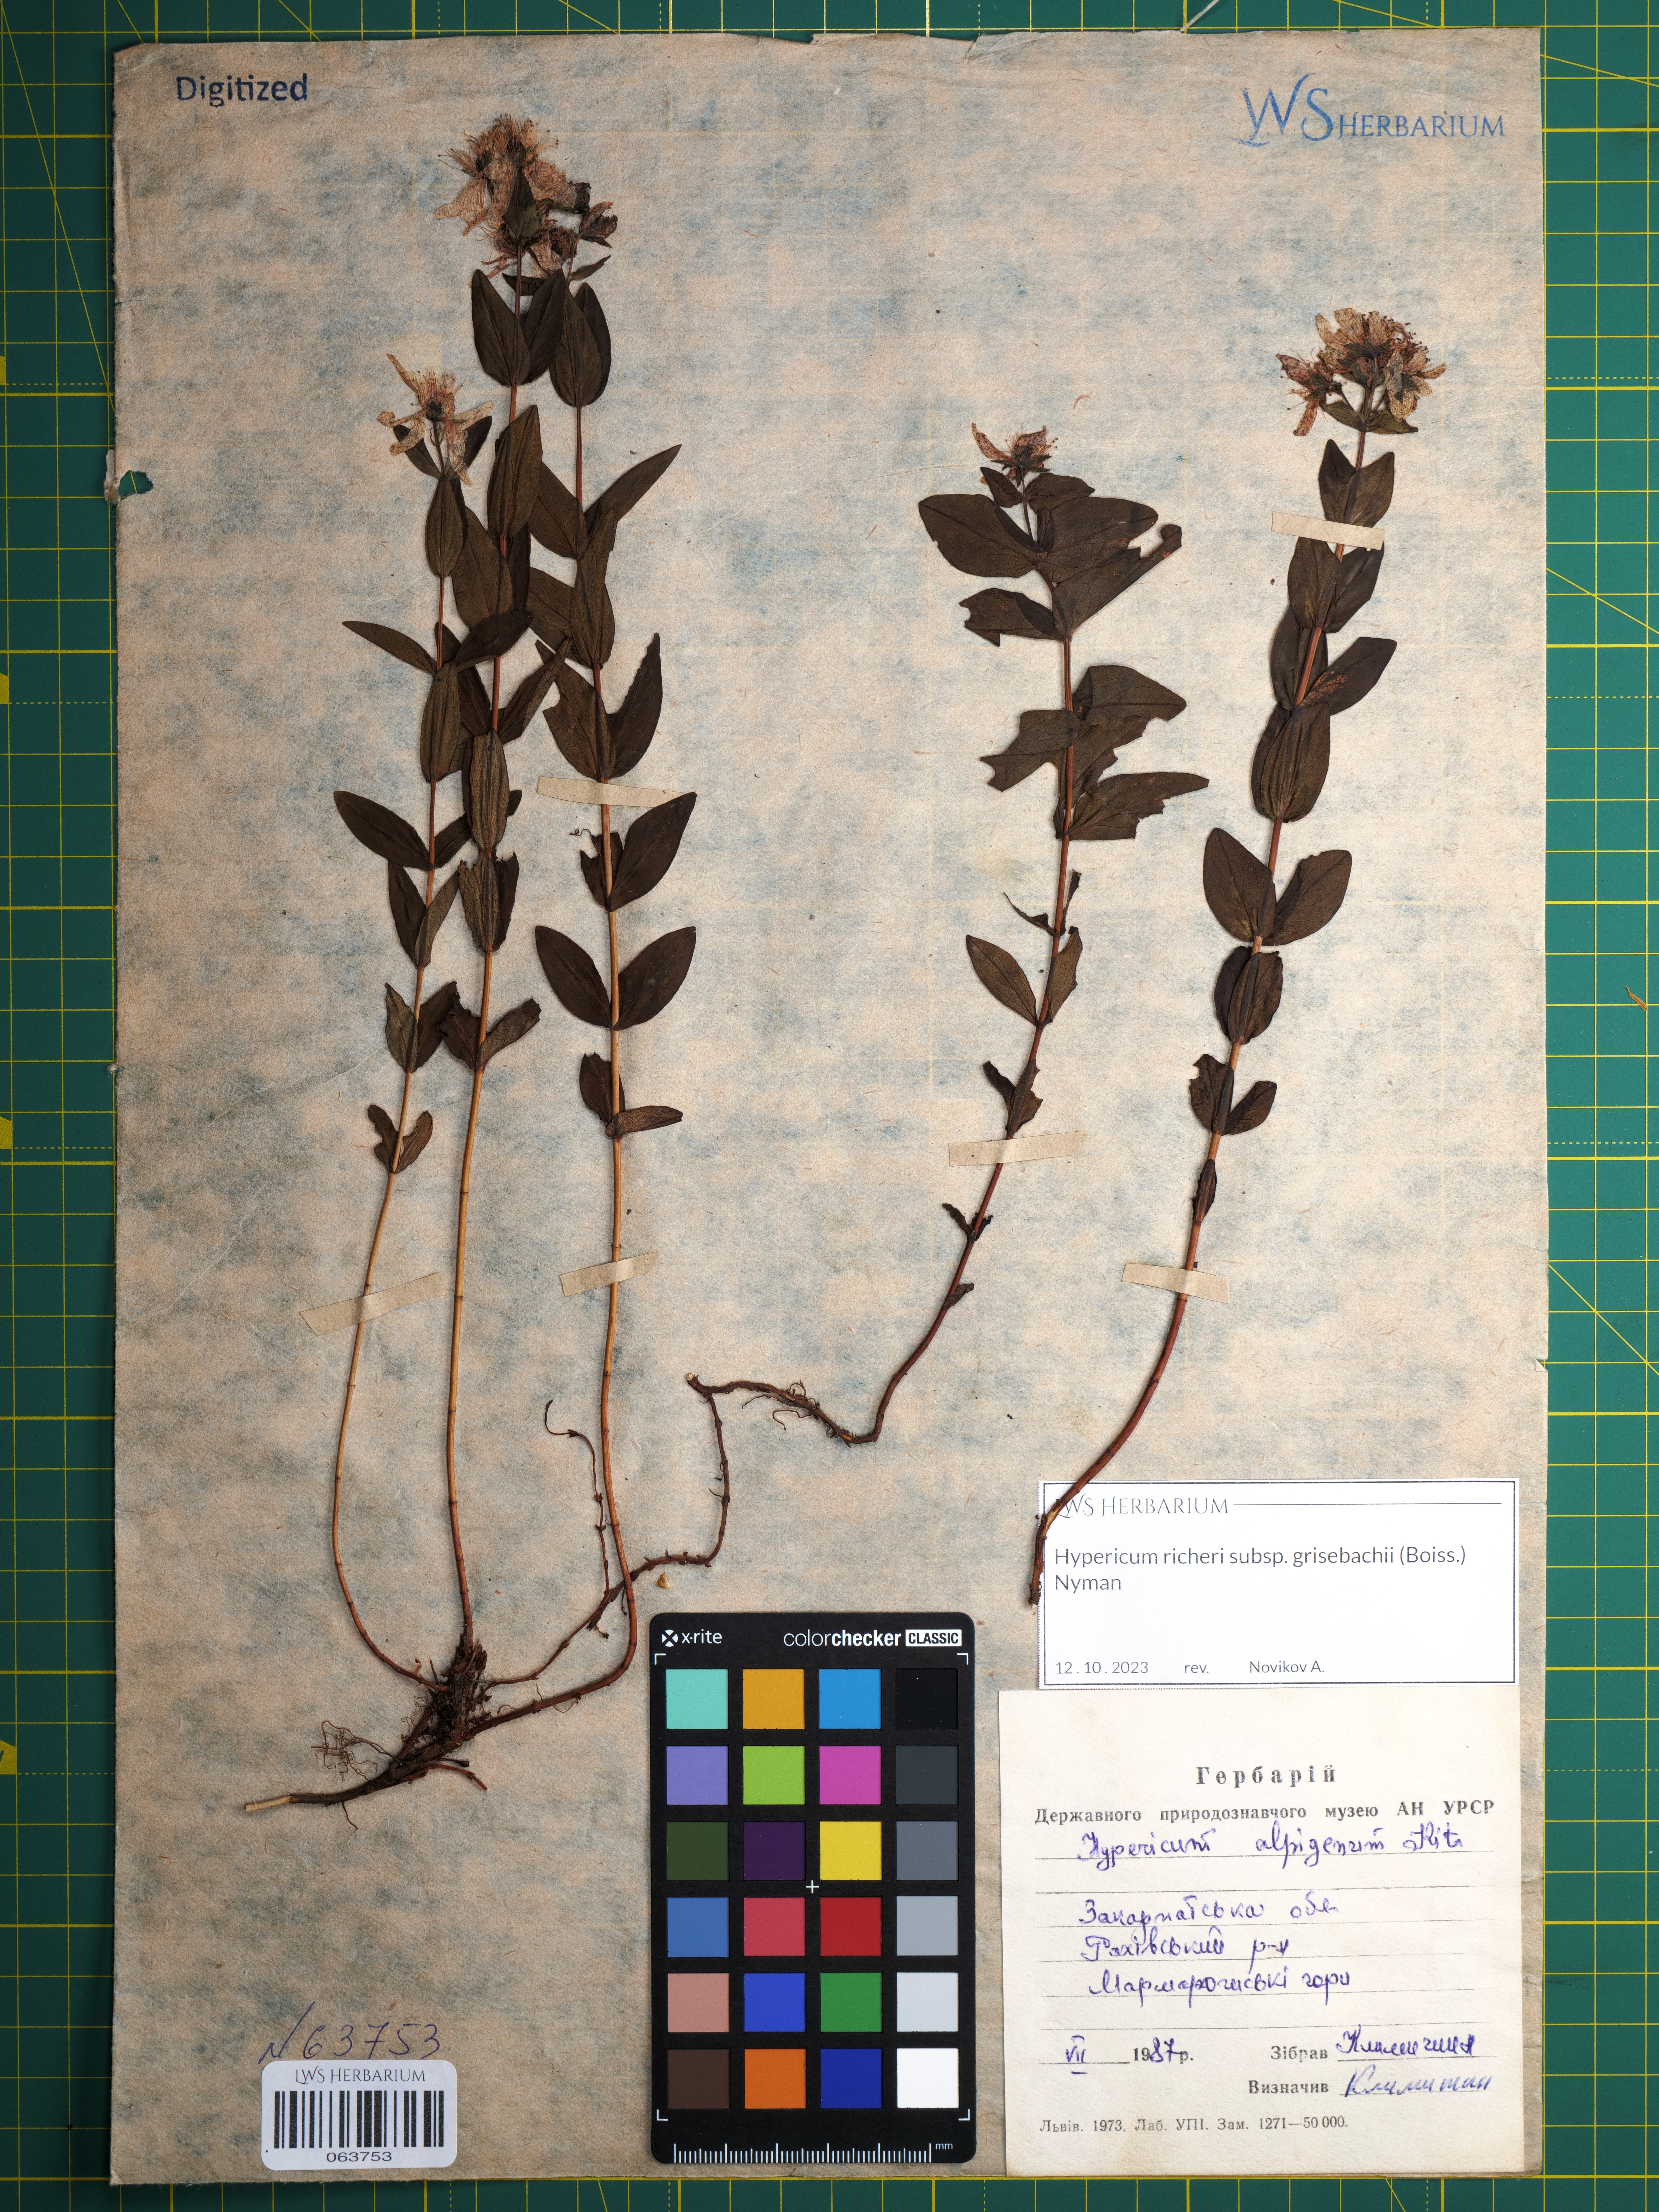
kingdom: Plantae
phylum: Tracheophyta
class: Magnoliopsida
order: Malpighiales
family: Hypericaceae
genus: Hypericum
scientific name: Hypericum richeri
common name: Alpine st john's-wort
